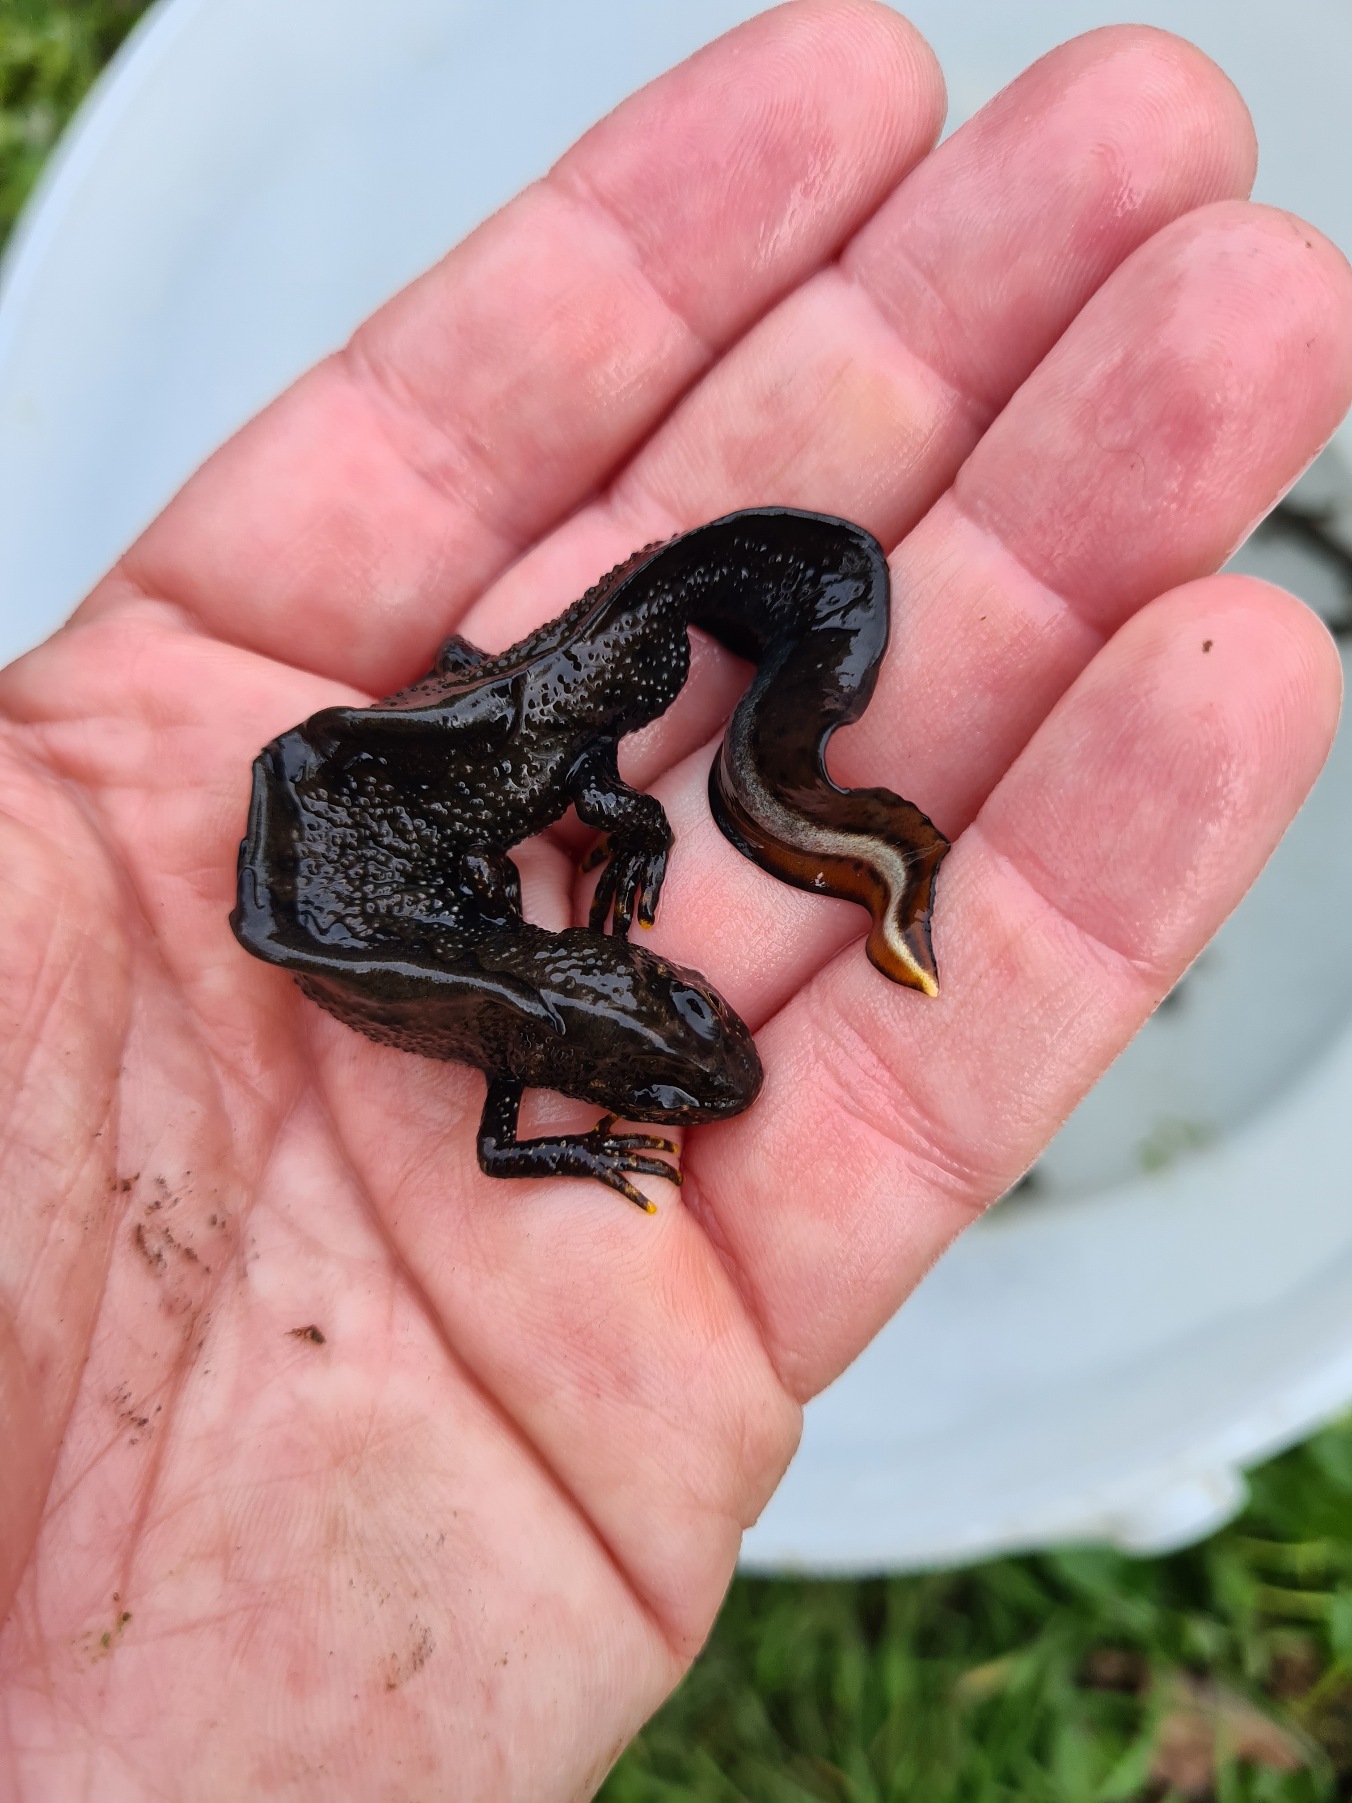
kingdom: Animalia
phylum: Chordata
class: Amphibia
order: Caudata
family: Salamandridae
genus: Triturus
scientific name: Triturus cristatus
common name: Stor vandsalamander
